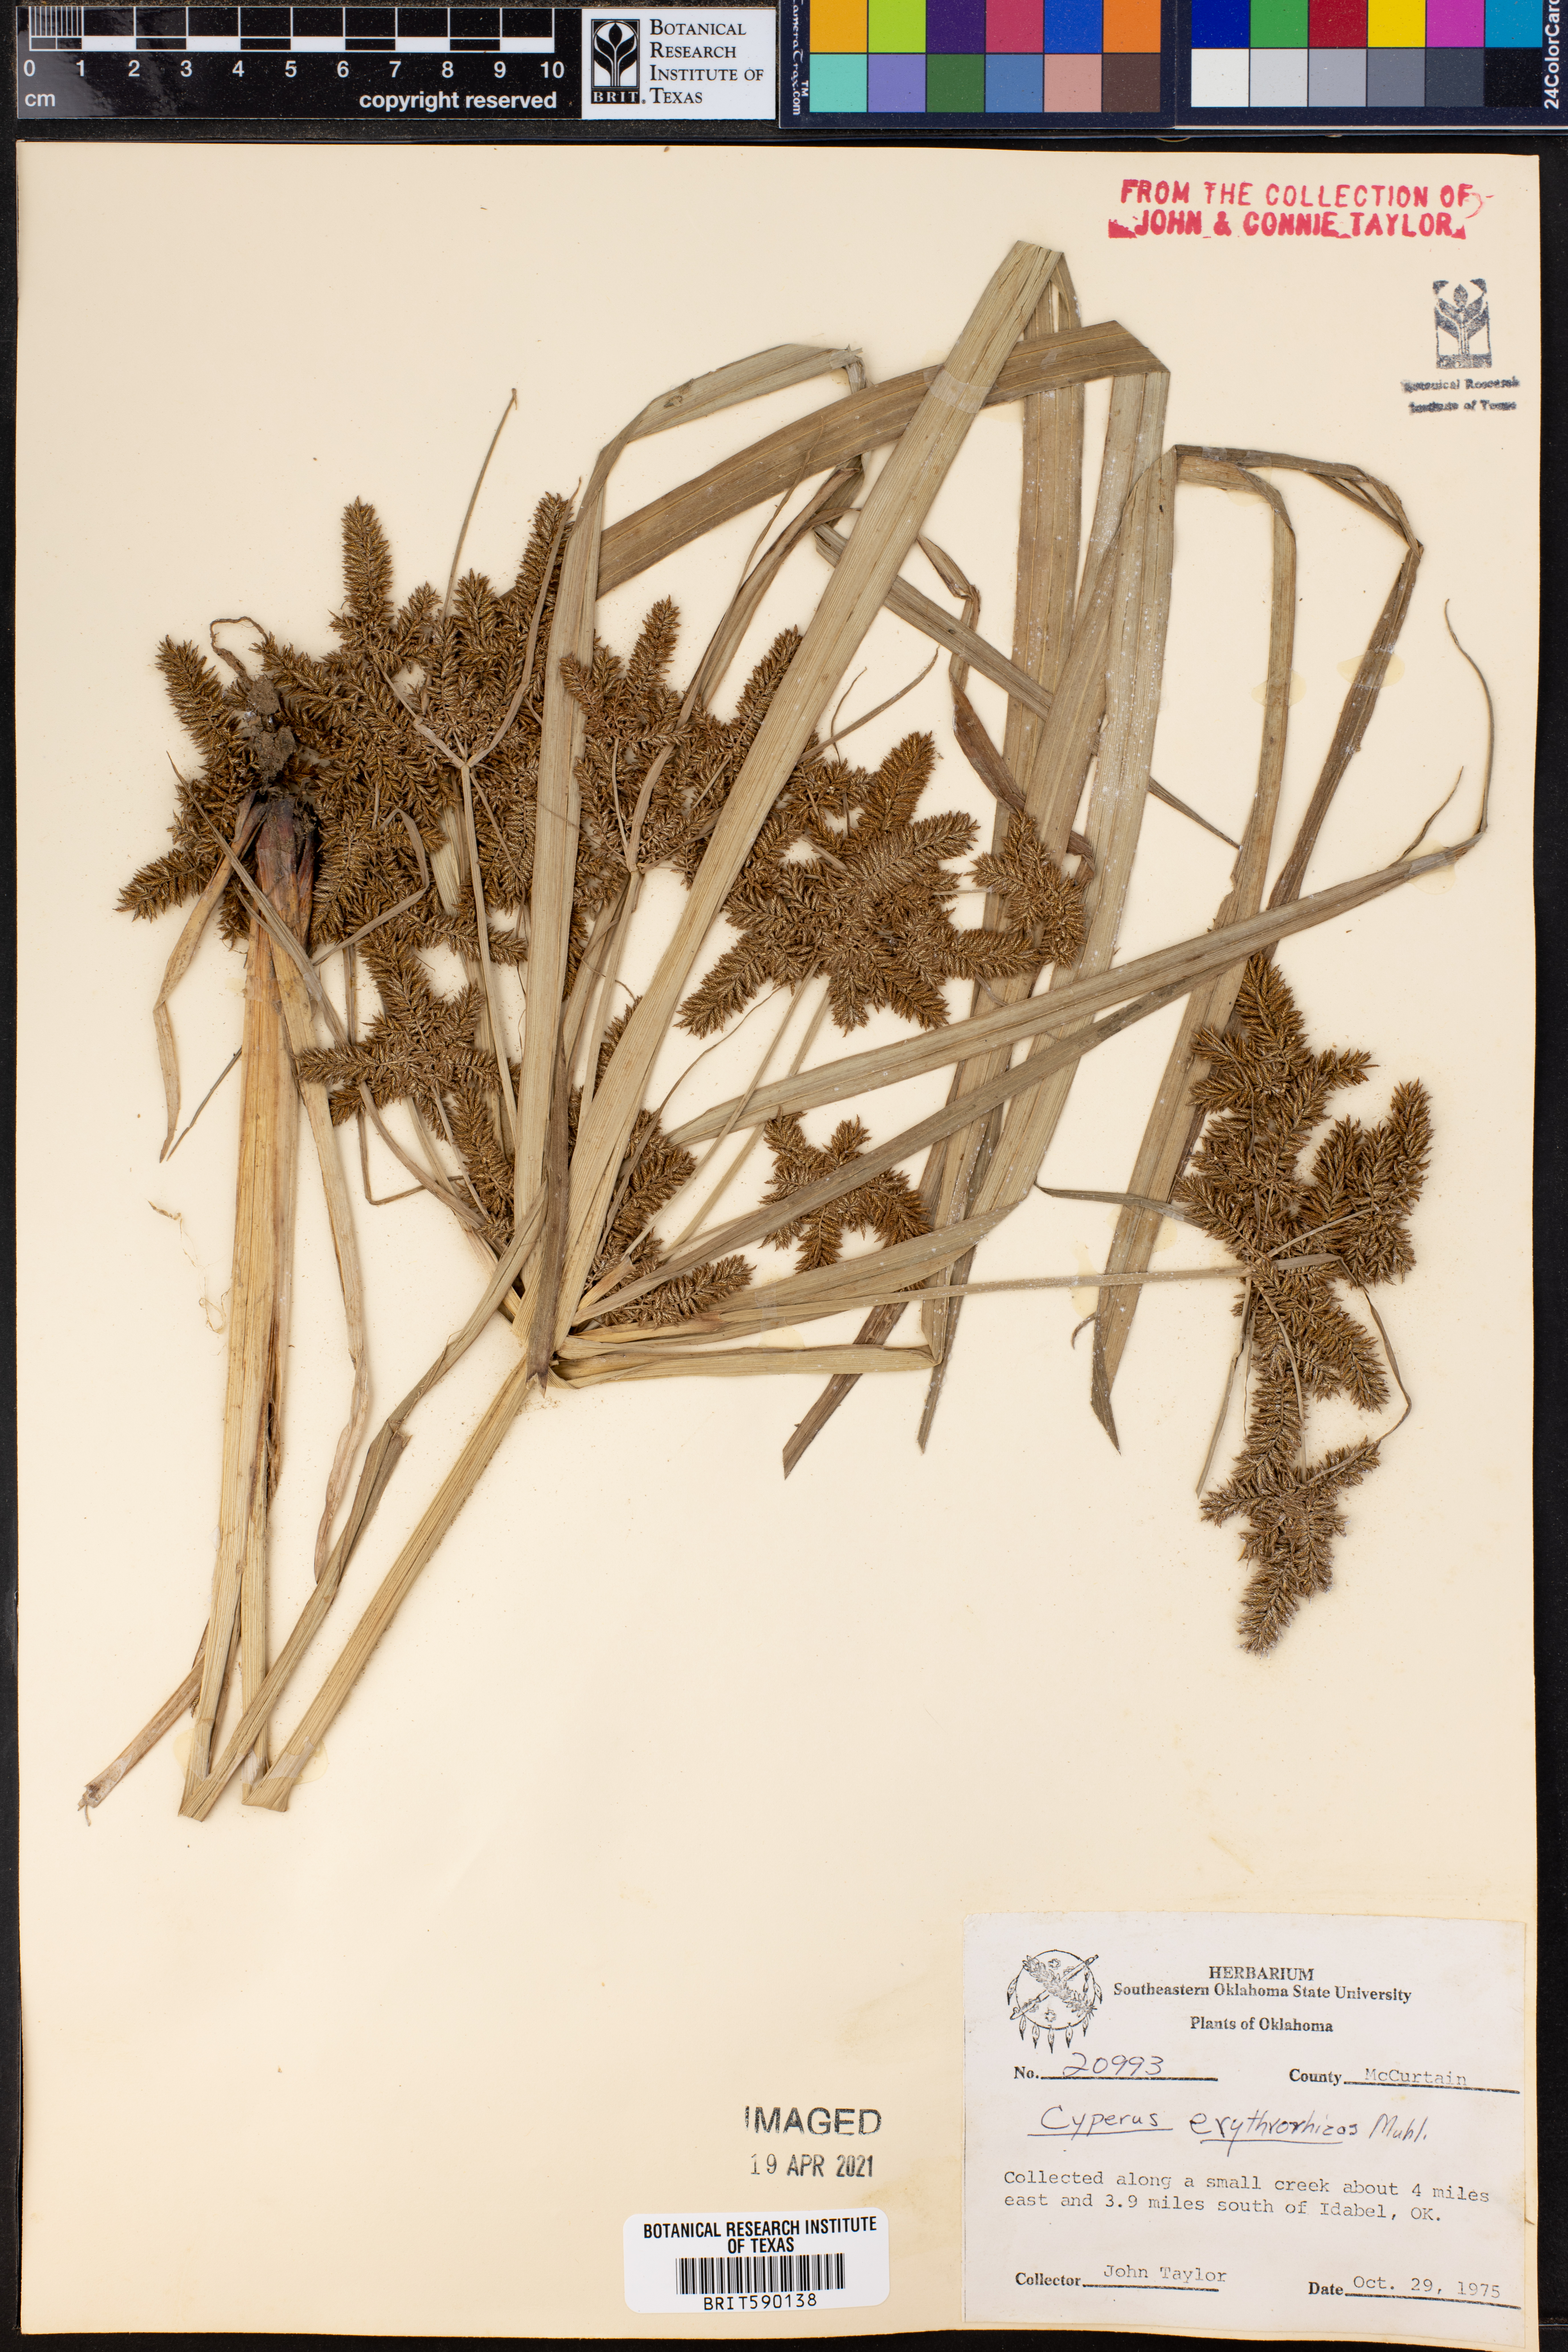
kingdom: Plantae
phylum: Tracheophyta
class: Liliopsida
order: Poales
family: Cyperaceae
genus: Cyperus
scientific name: Cyperus erythrorhizos
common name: Red-root flat sedge
